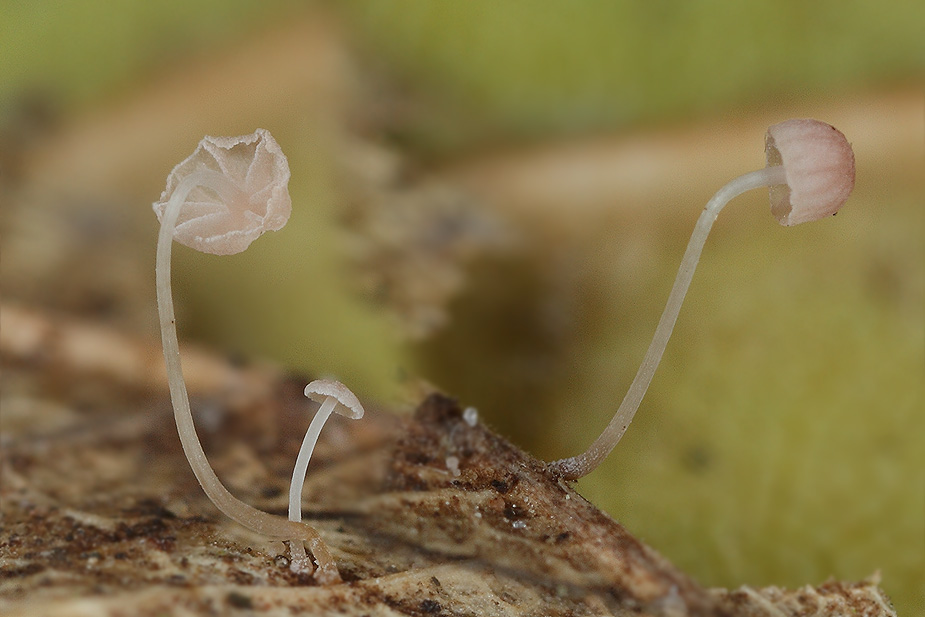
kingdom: Fungi
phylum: Basidiomycota
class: Agaricomycetes
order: Agaricales
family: Mycenaceae
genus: Mycena
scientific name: Mycena smithiana
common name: blegrød huesvamp
